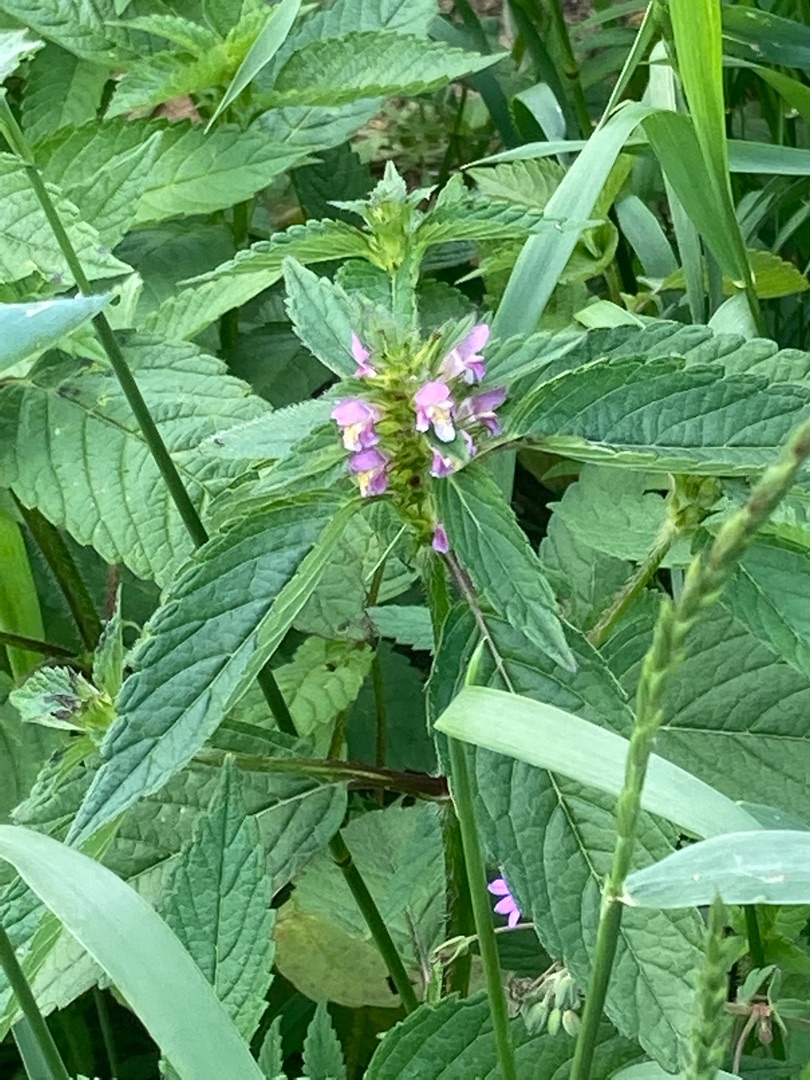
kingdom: Plantae
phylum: Tracheophyta
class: Magnoliopsida
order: Lamiales
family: Lamiaceae
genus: Galeopsis
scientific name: Galeopsis tetrahit
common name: Almindelig hanekro
